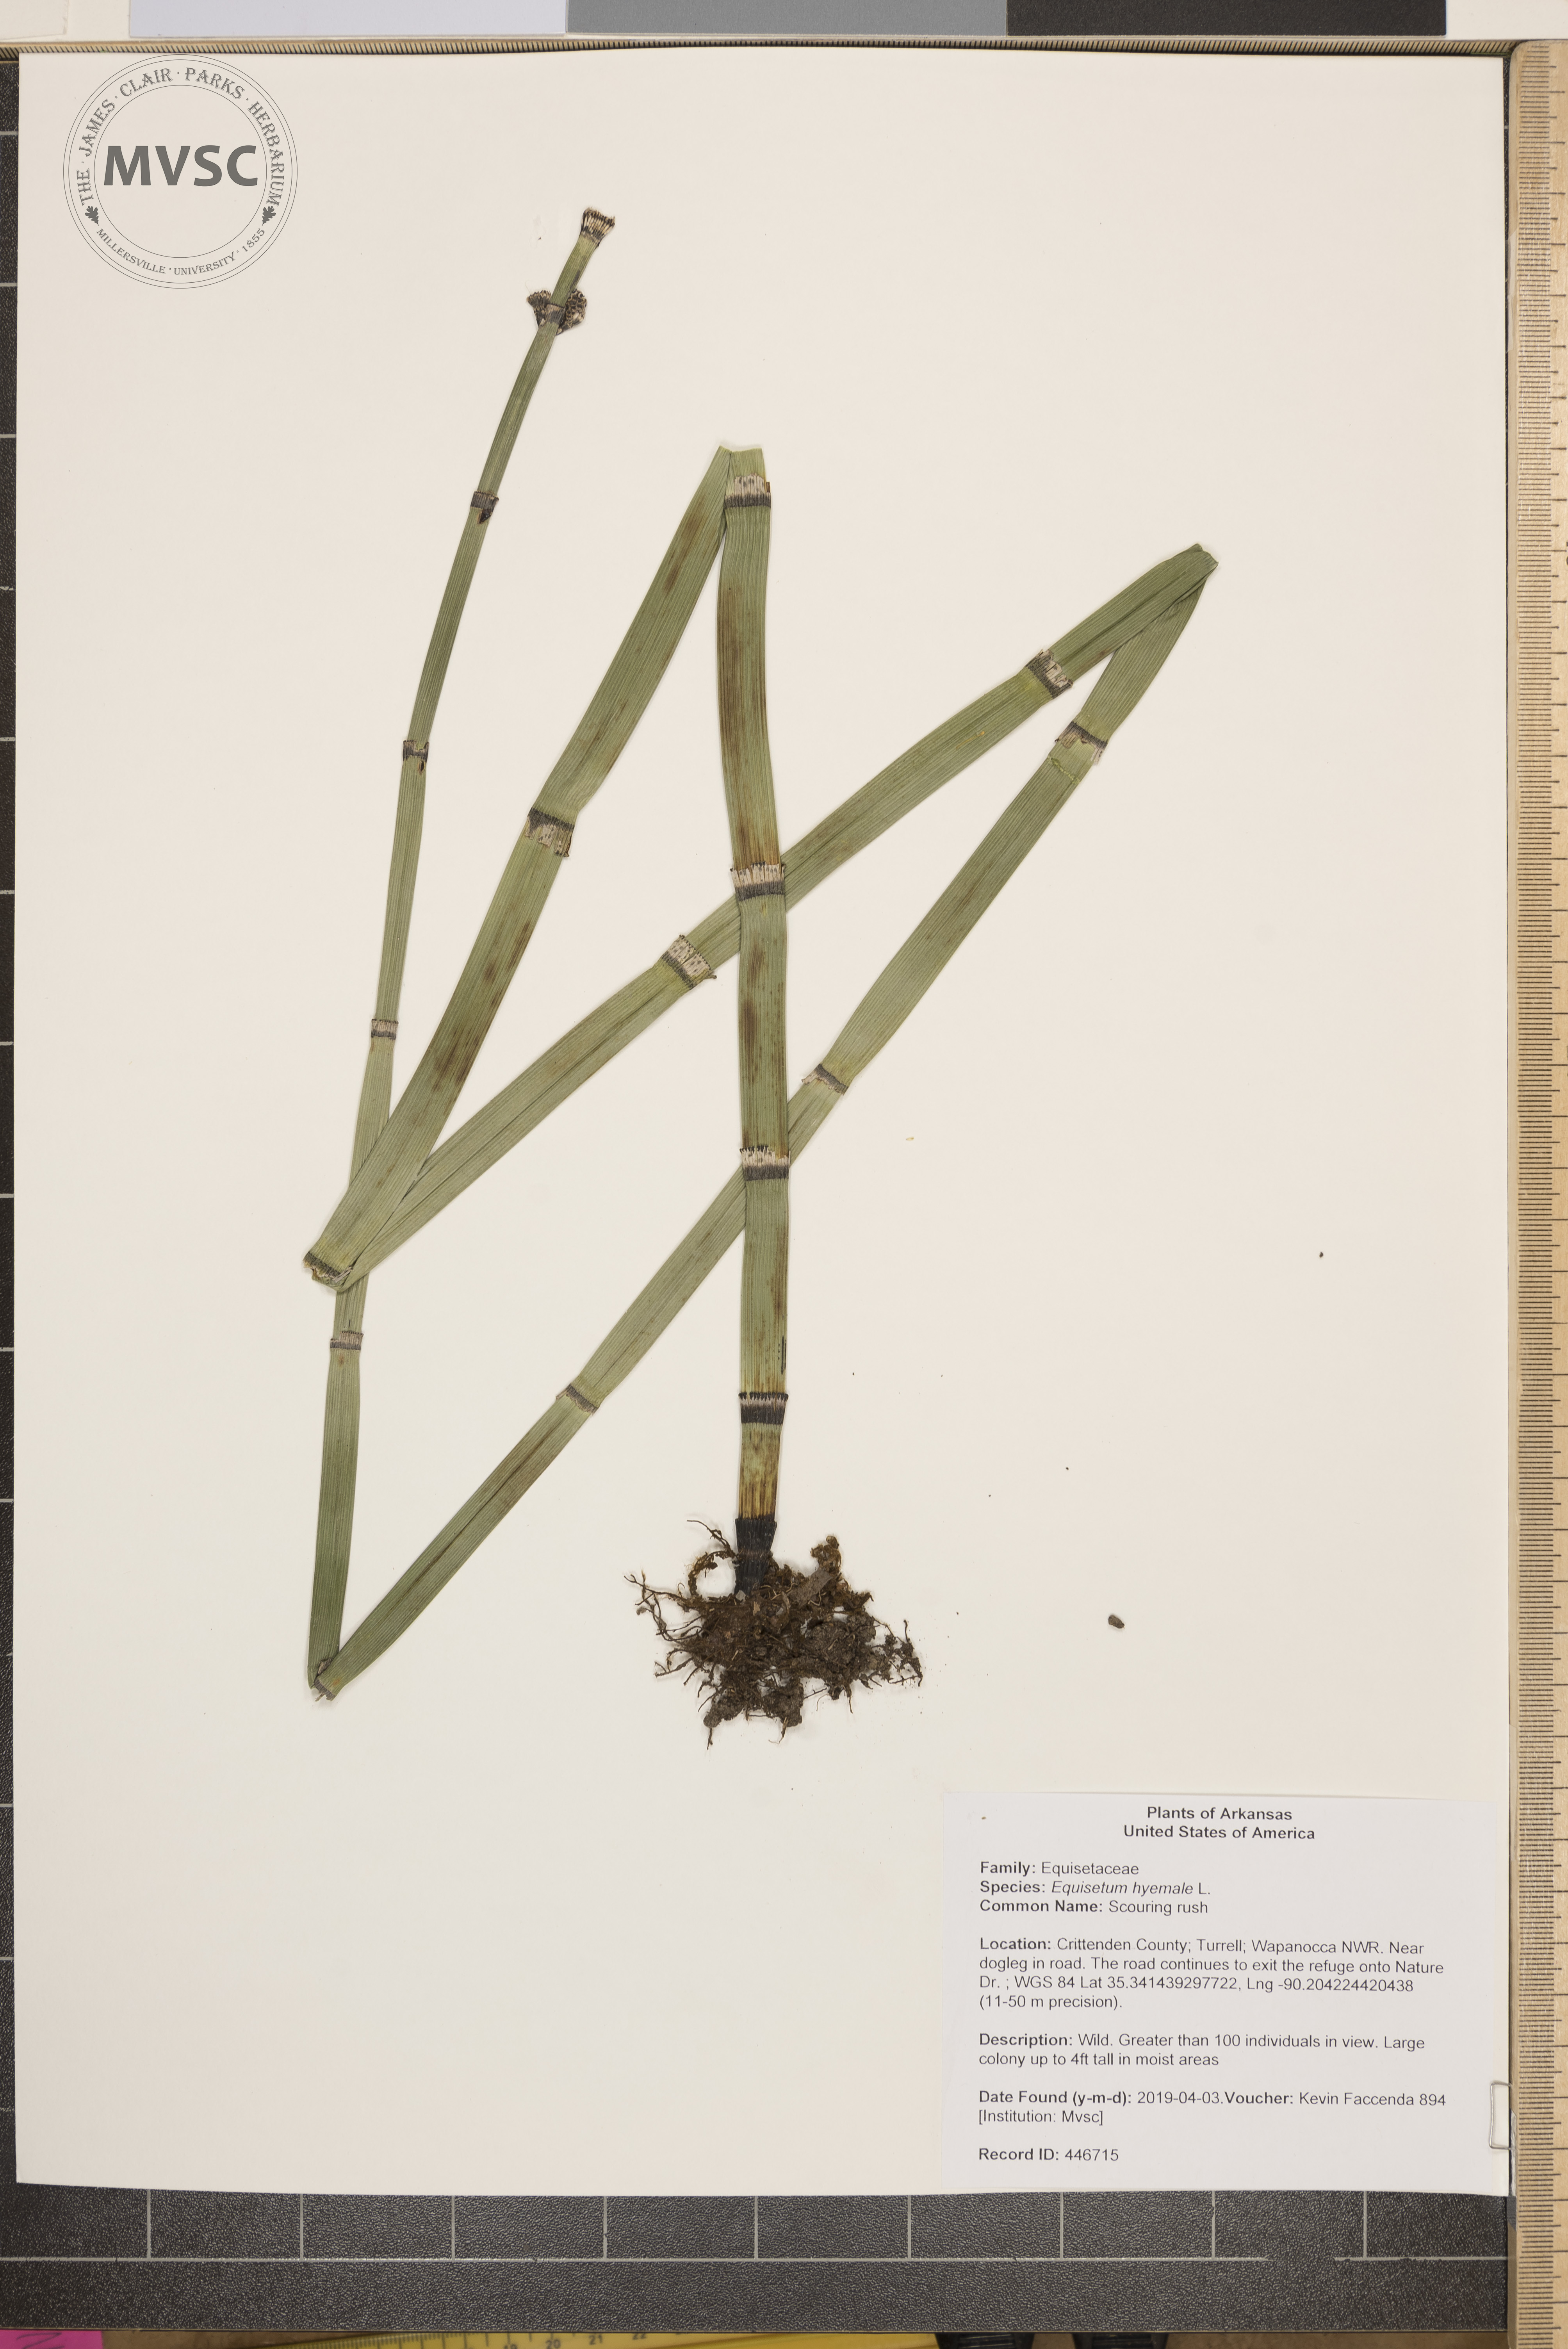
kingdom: Plantae
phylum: Tracheophyta
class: Polypodiopsida
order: Equisetales
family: Equisetaceae
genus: Equisetum
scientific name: Equisetum hyemale
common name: Scouring rush
